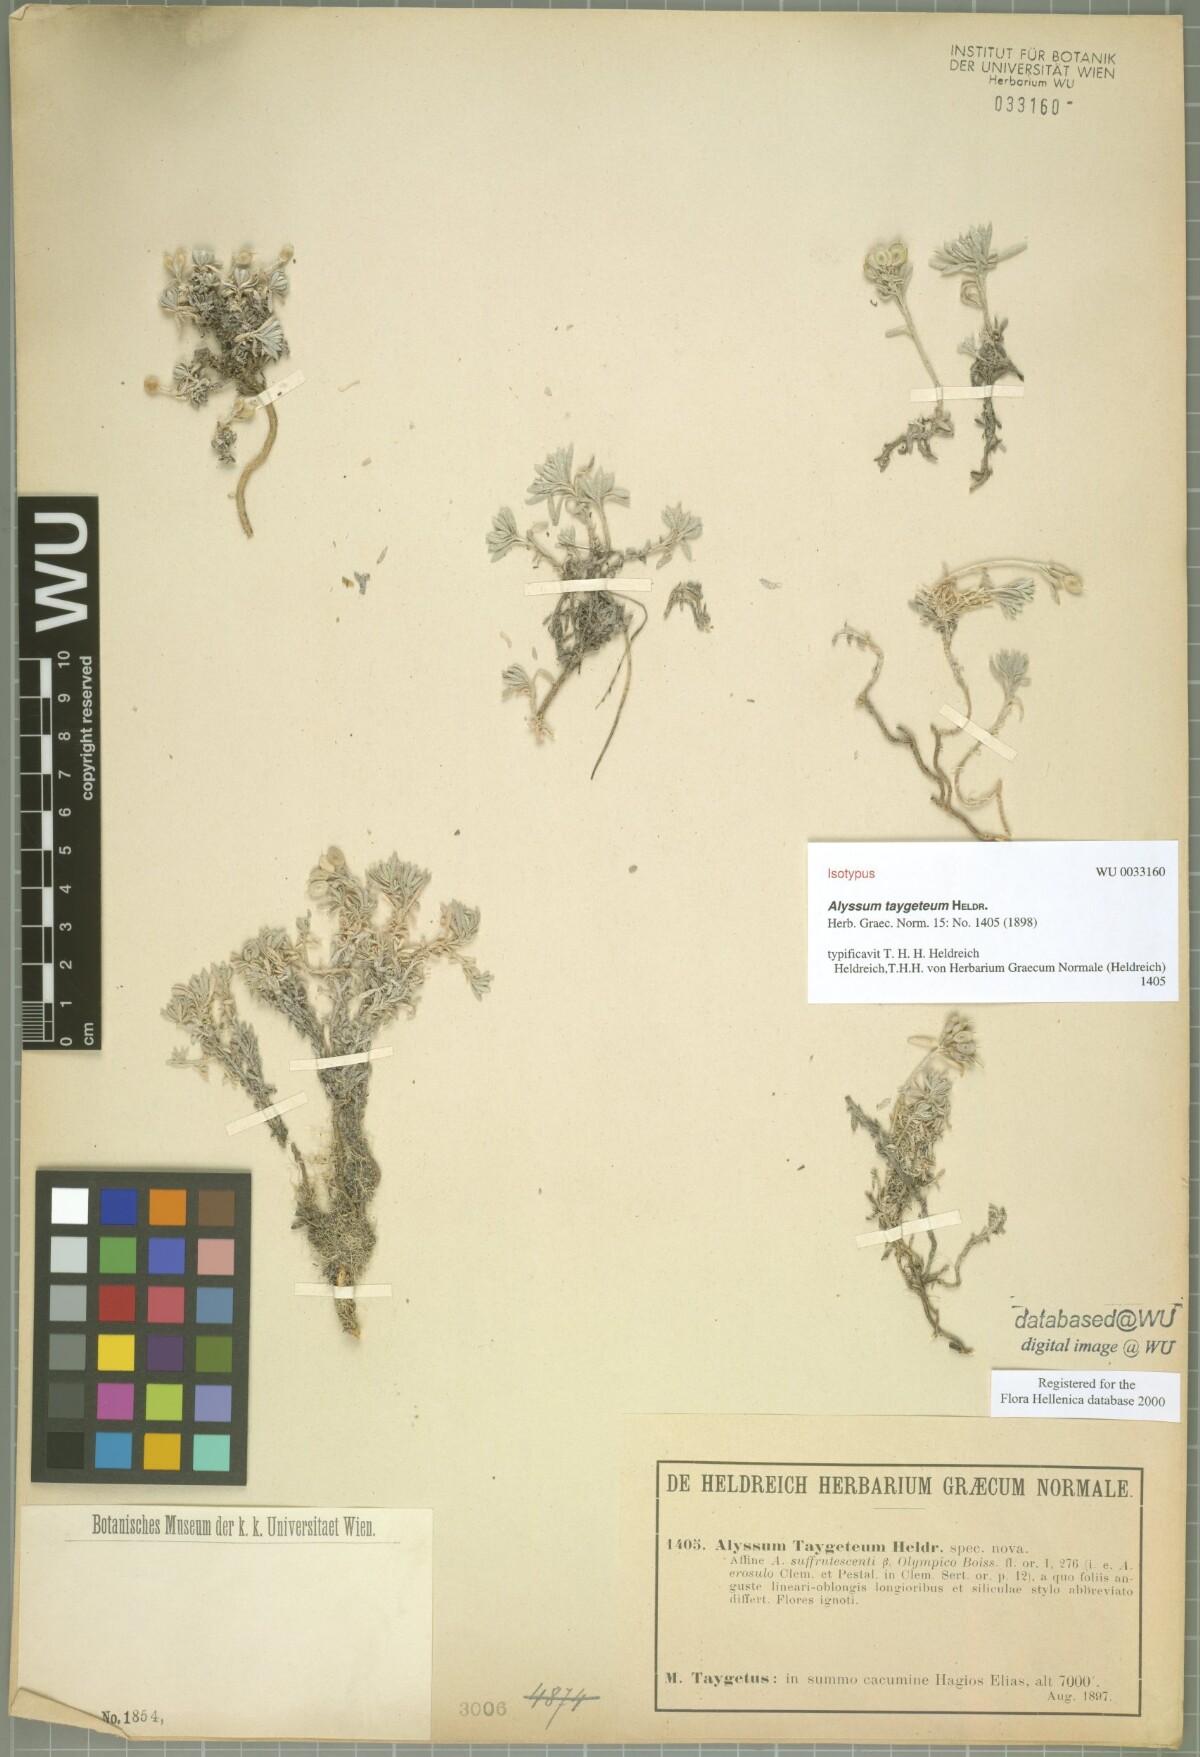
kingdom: Plantae
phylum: Tracheophyta
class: Magnoliopsida
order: Brassicales
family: Brassicaceae
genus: Alyssum
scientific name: Alyssum taygeteum
